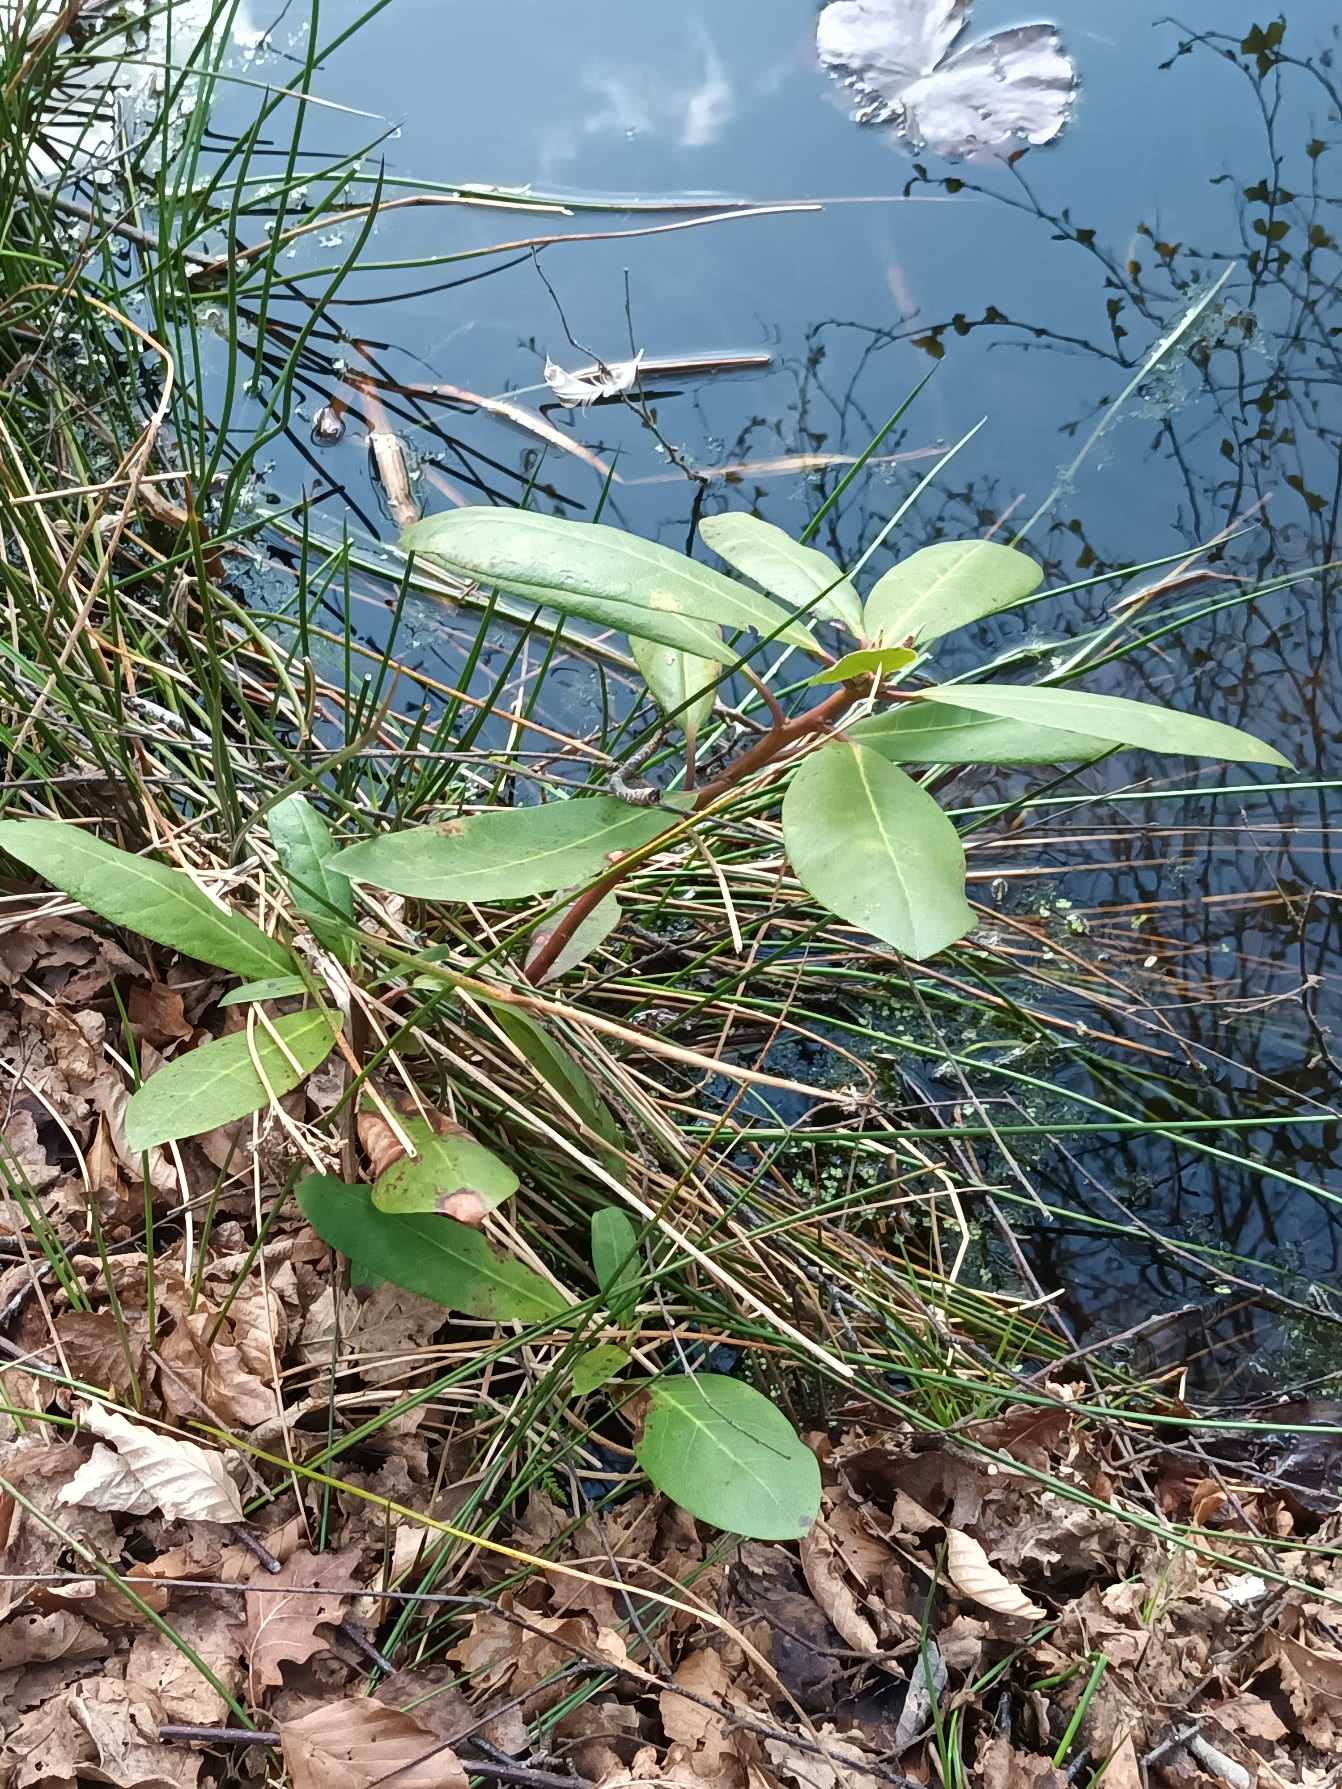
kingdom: Plantae
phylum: Tracheophyta
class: Magnoliopsida
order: Ericales
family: Ericaceae
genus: Rhododendron
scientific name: Rhododendron
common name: Rhododendronslægten
